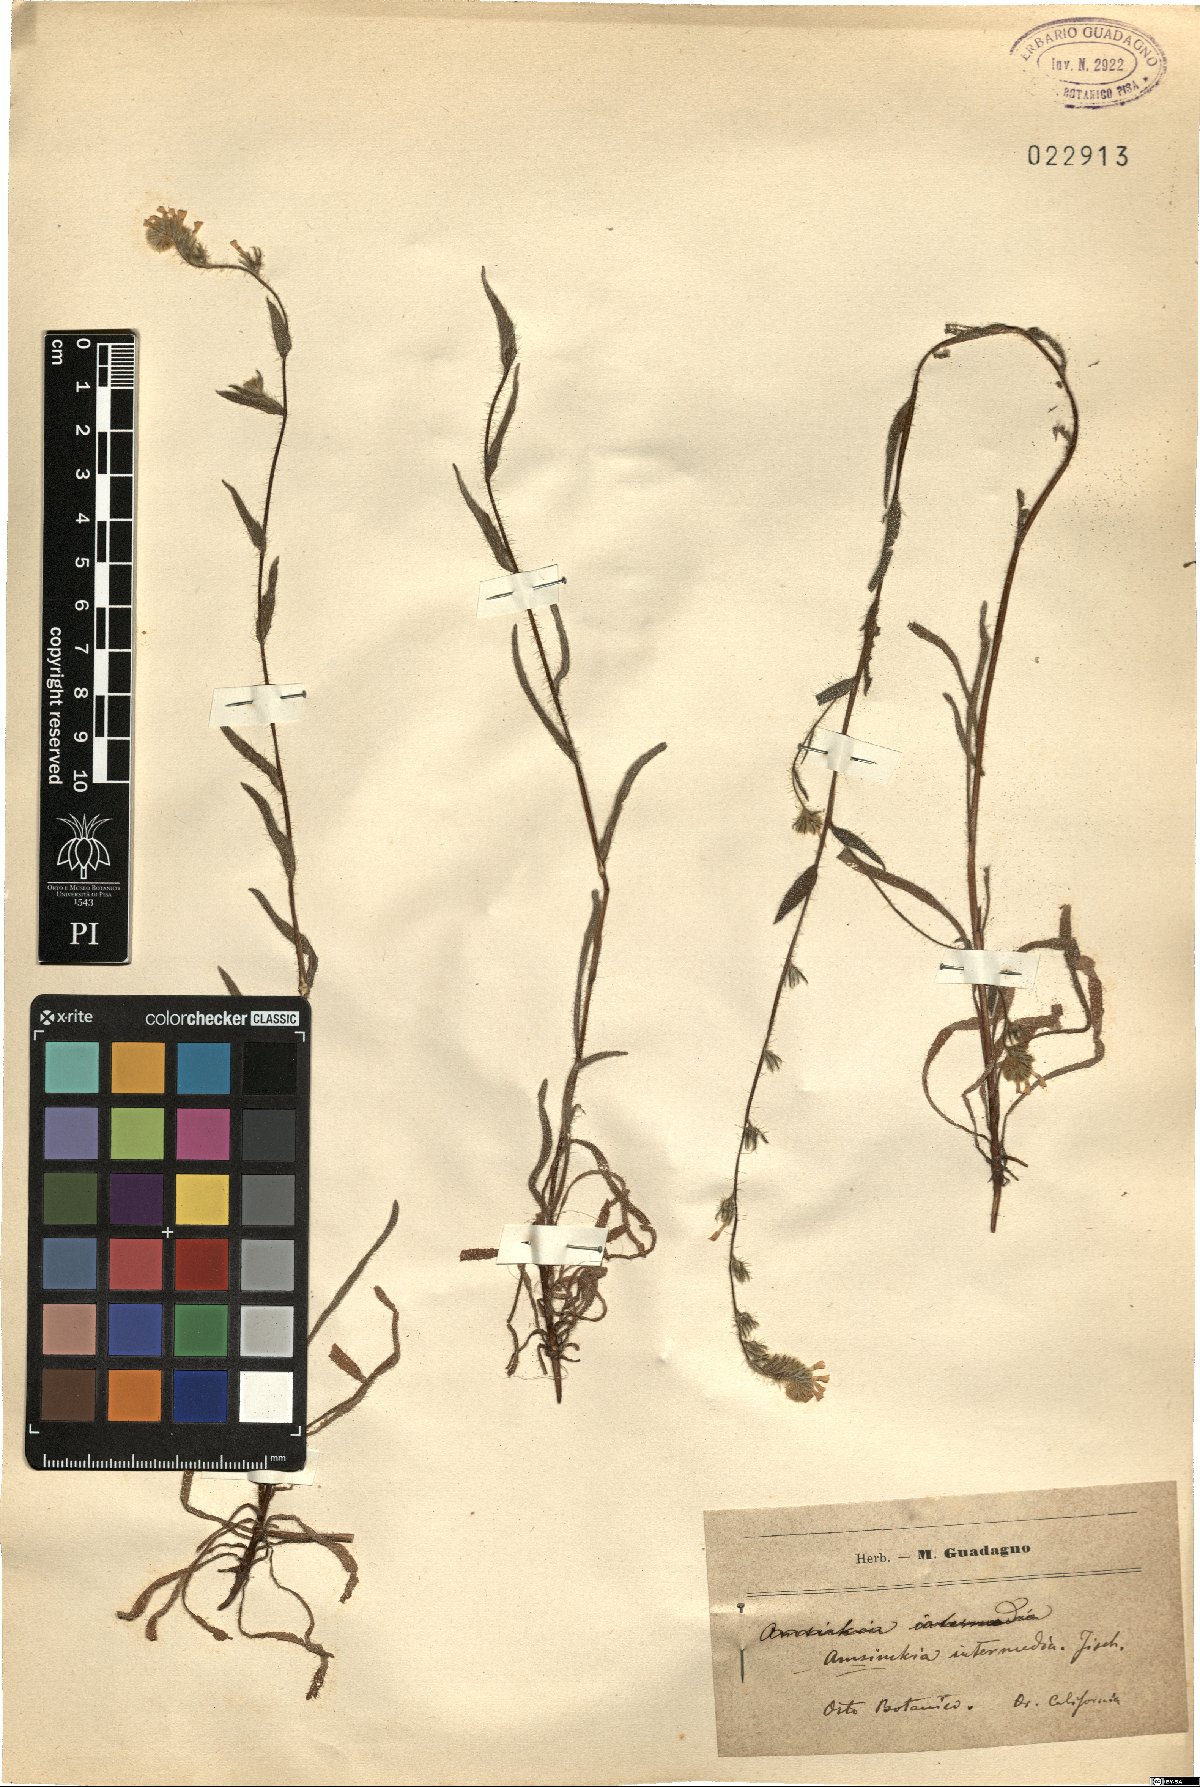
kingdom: Plantae
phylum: Tracheophyta
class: Magnoliopsida
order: Boraginales
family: Boraginaceae
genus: Amsinckia
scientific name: Amsinckia menziesii
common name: Menzies' fiddleneck
